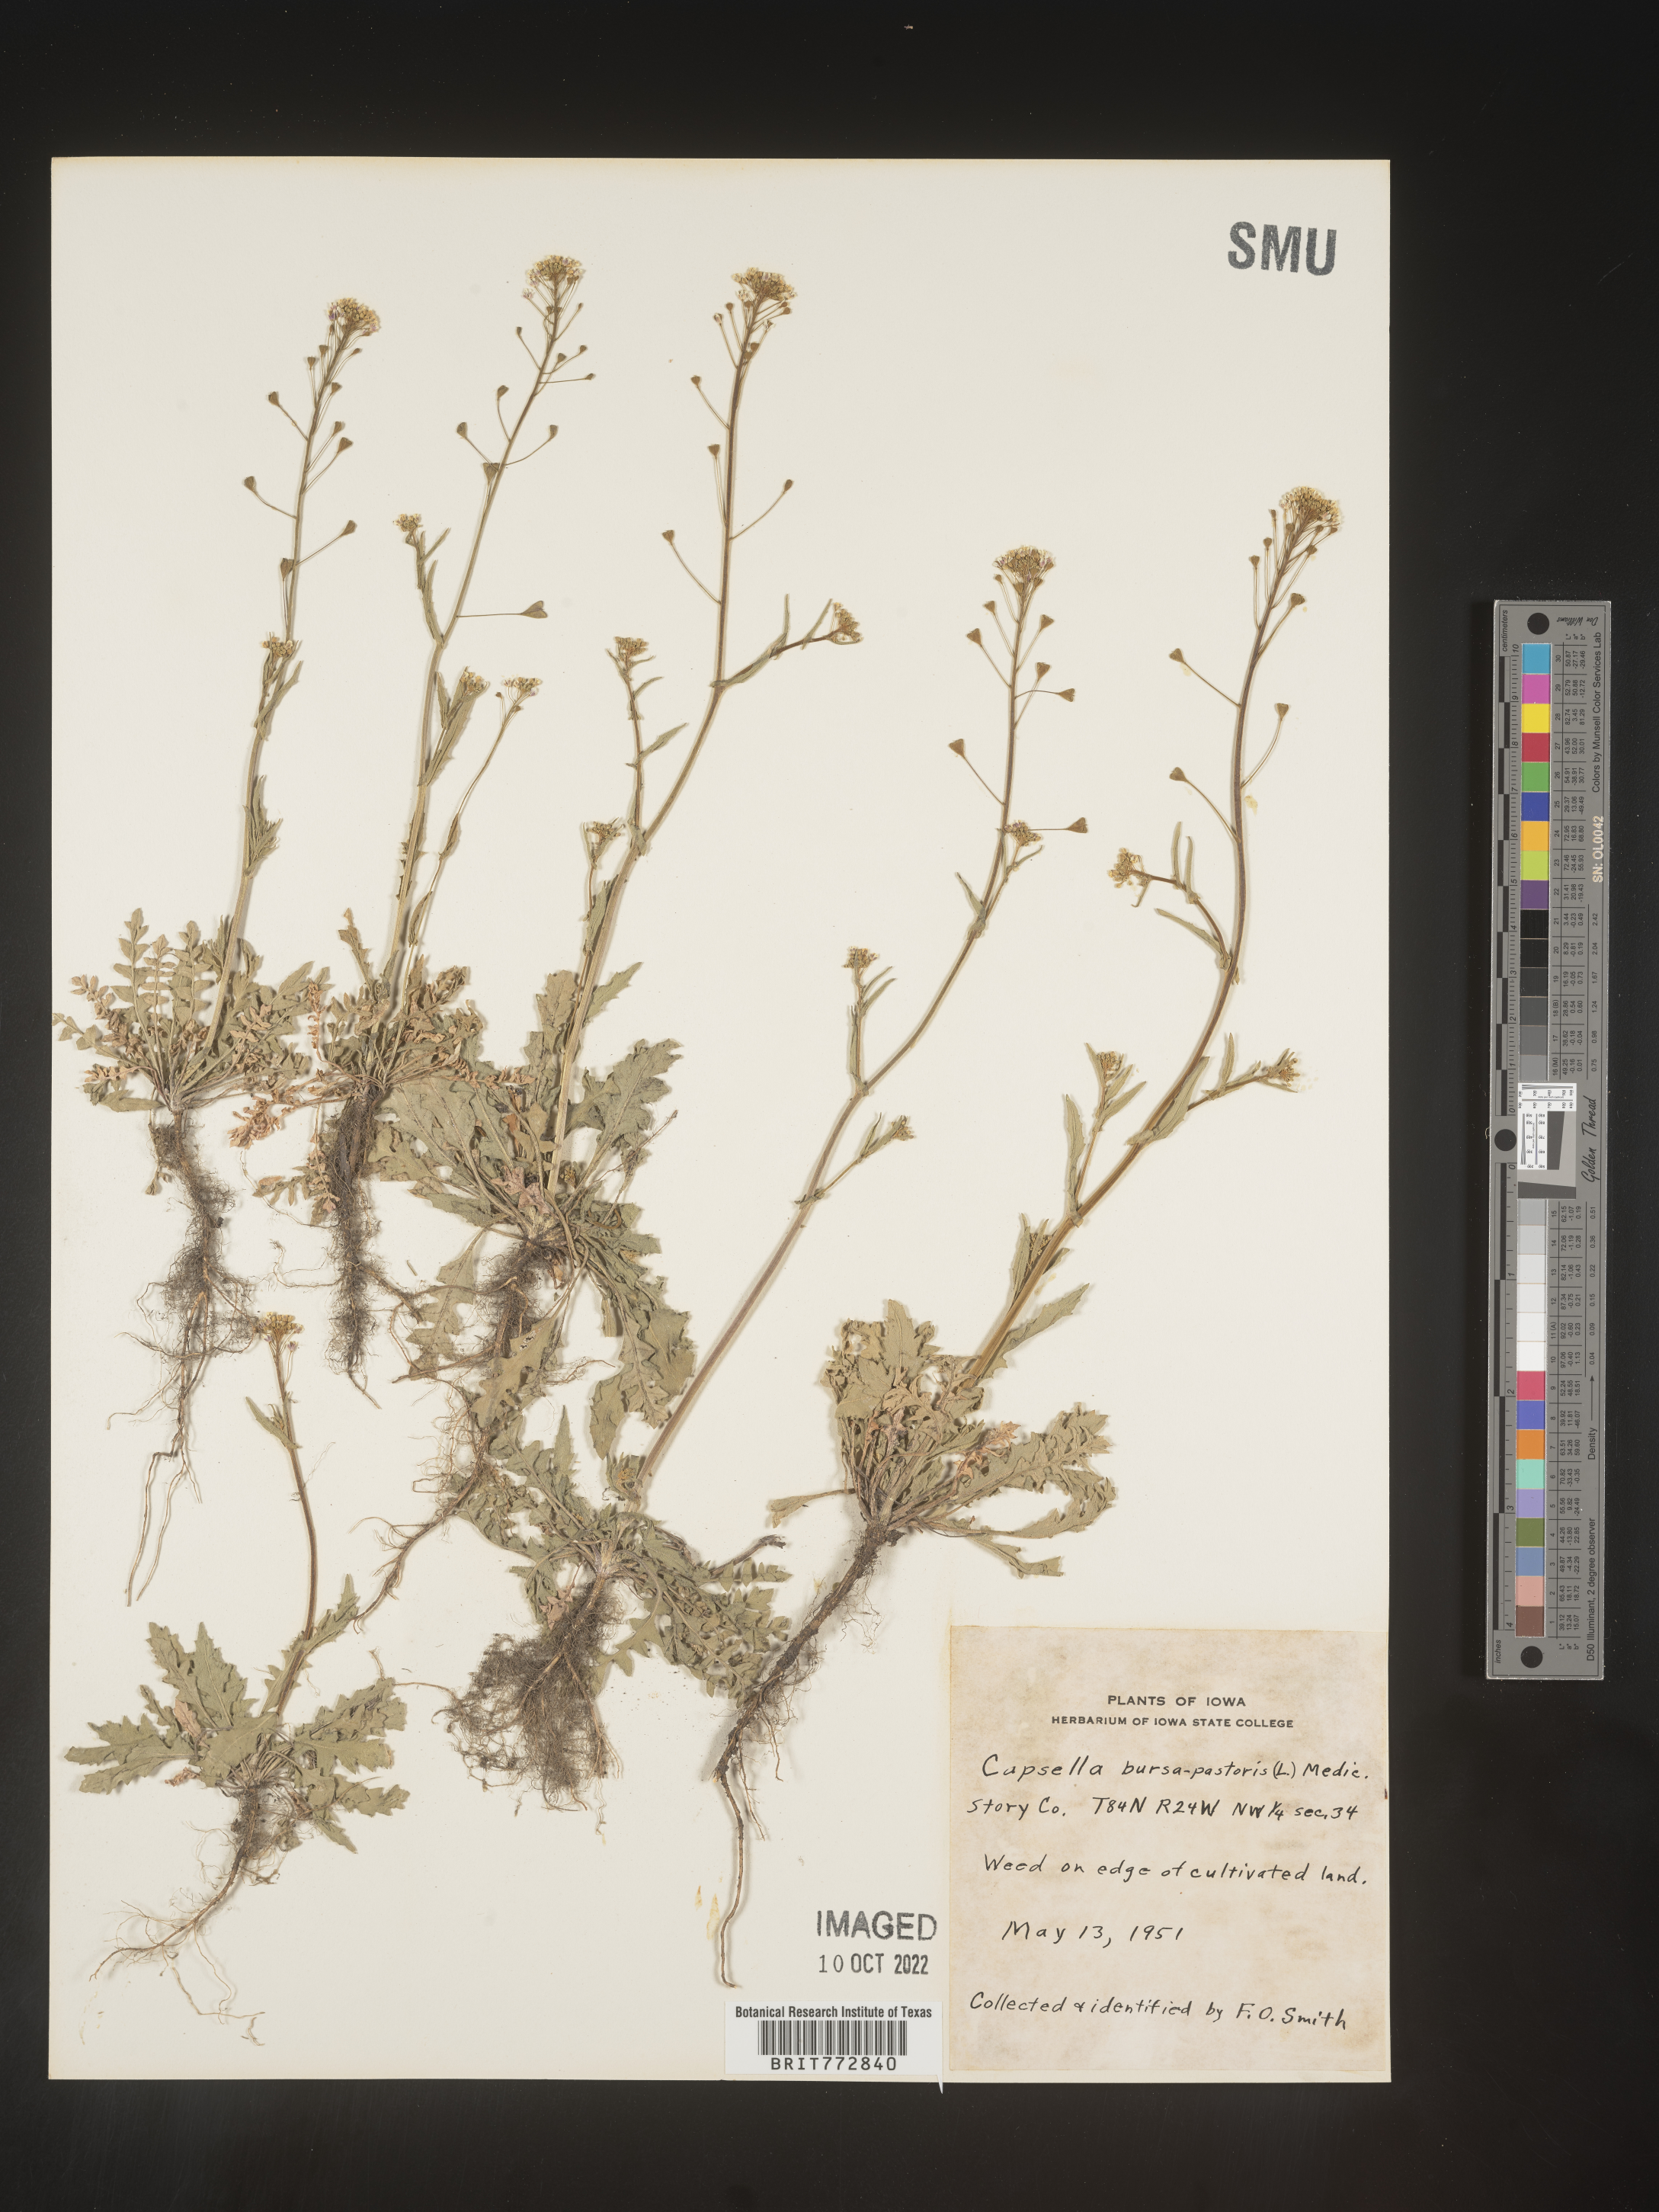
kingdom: Plantae
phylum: Tracheophyta
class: Magnoliopsida
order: Brassicales
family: Brassicaceae
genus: Capsella
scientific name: Capsella bursa-pastoris
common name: Shepherd's purse
